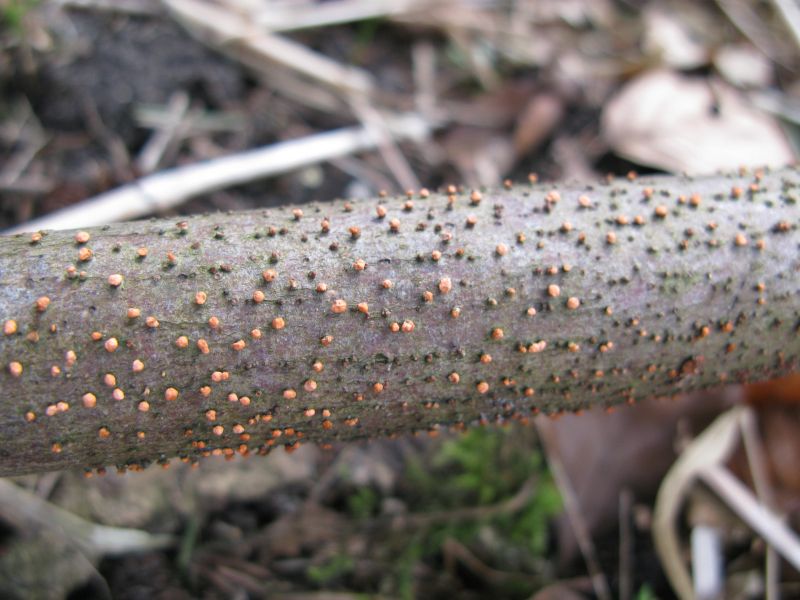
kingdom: Fungi
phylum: Ascomycota
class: Sordariomycetes
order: Hypocreales
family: Nectriaceae
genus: Nectria
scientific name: Nectria cinnabarina
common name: almindelig cinnobersvamp
